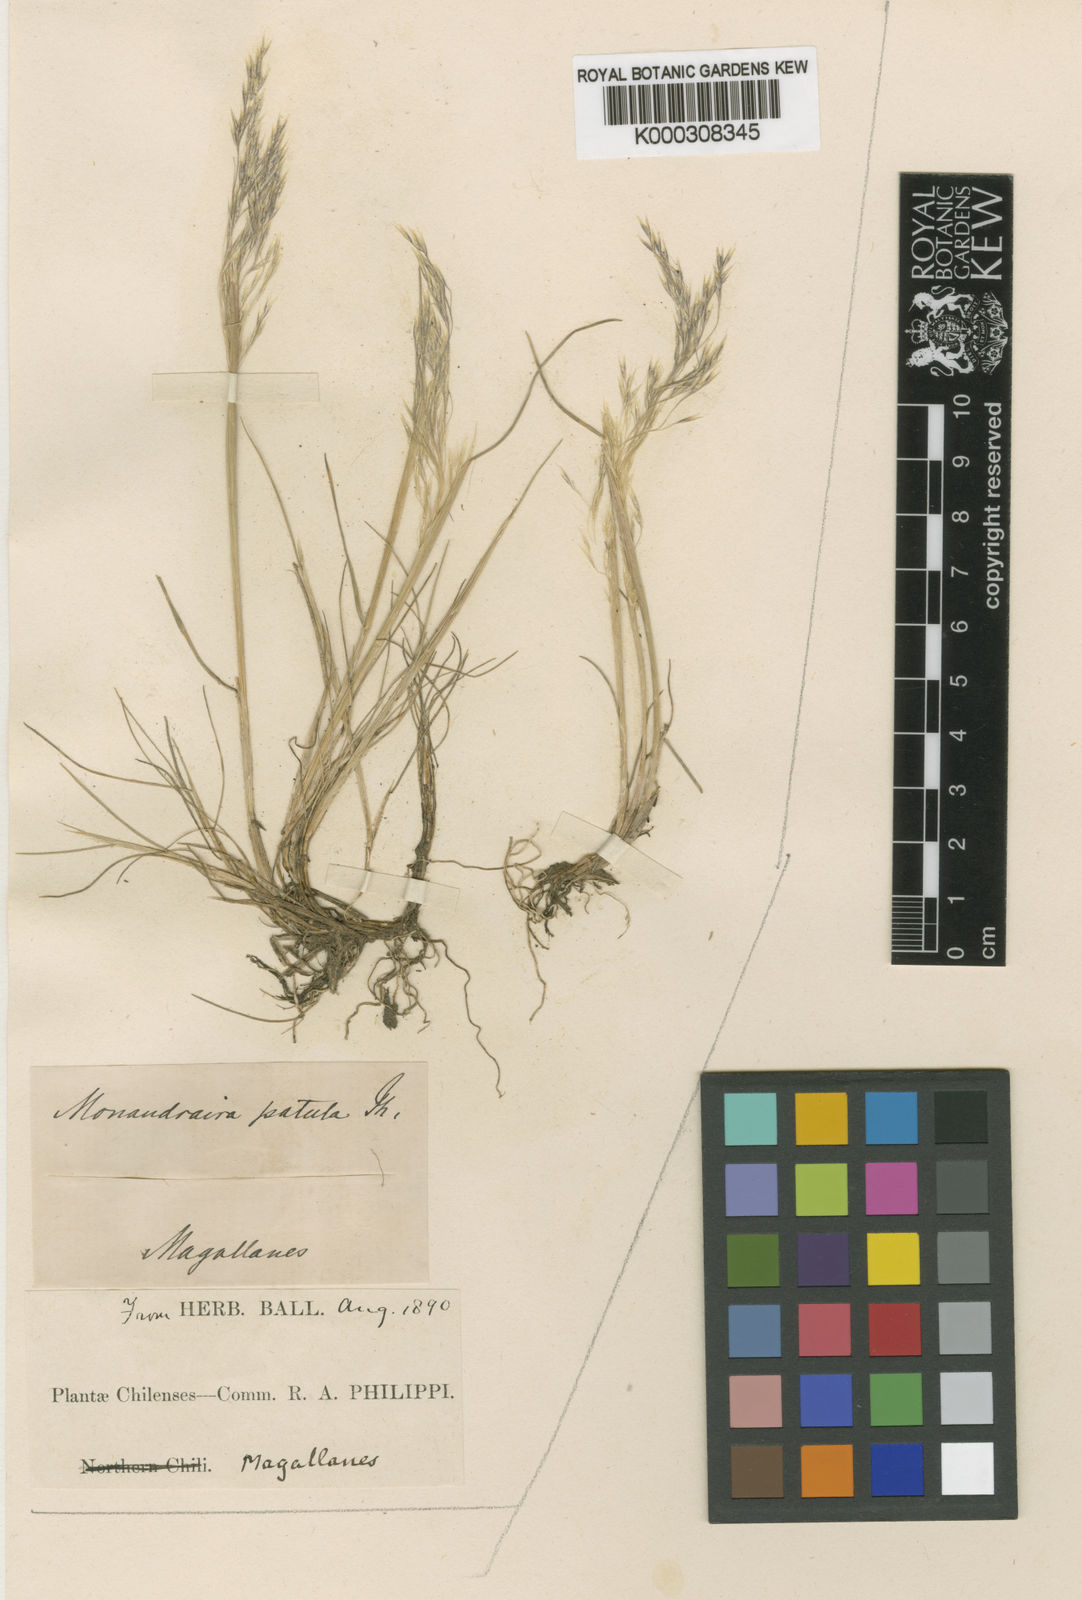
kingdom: Plantae
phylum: Tracheophyta
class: Liliopsida
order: Poales
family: Poaceae
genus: Deschampsia
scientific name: Deschampsia patula
